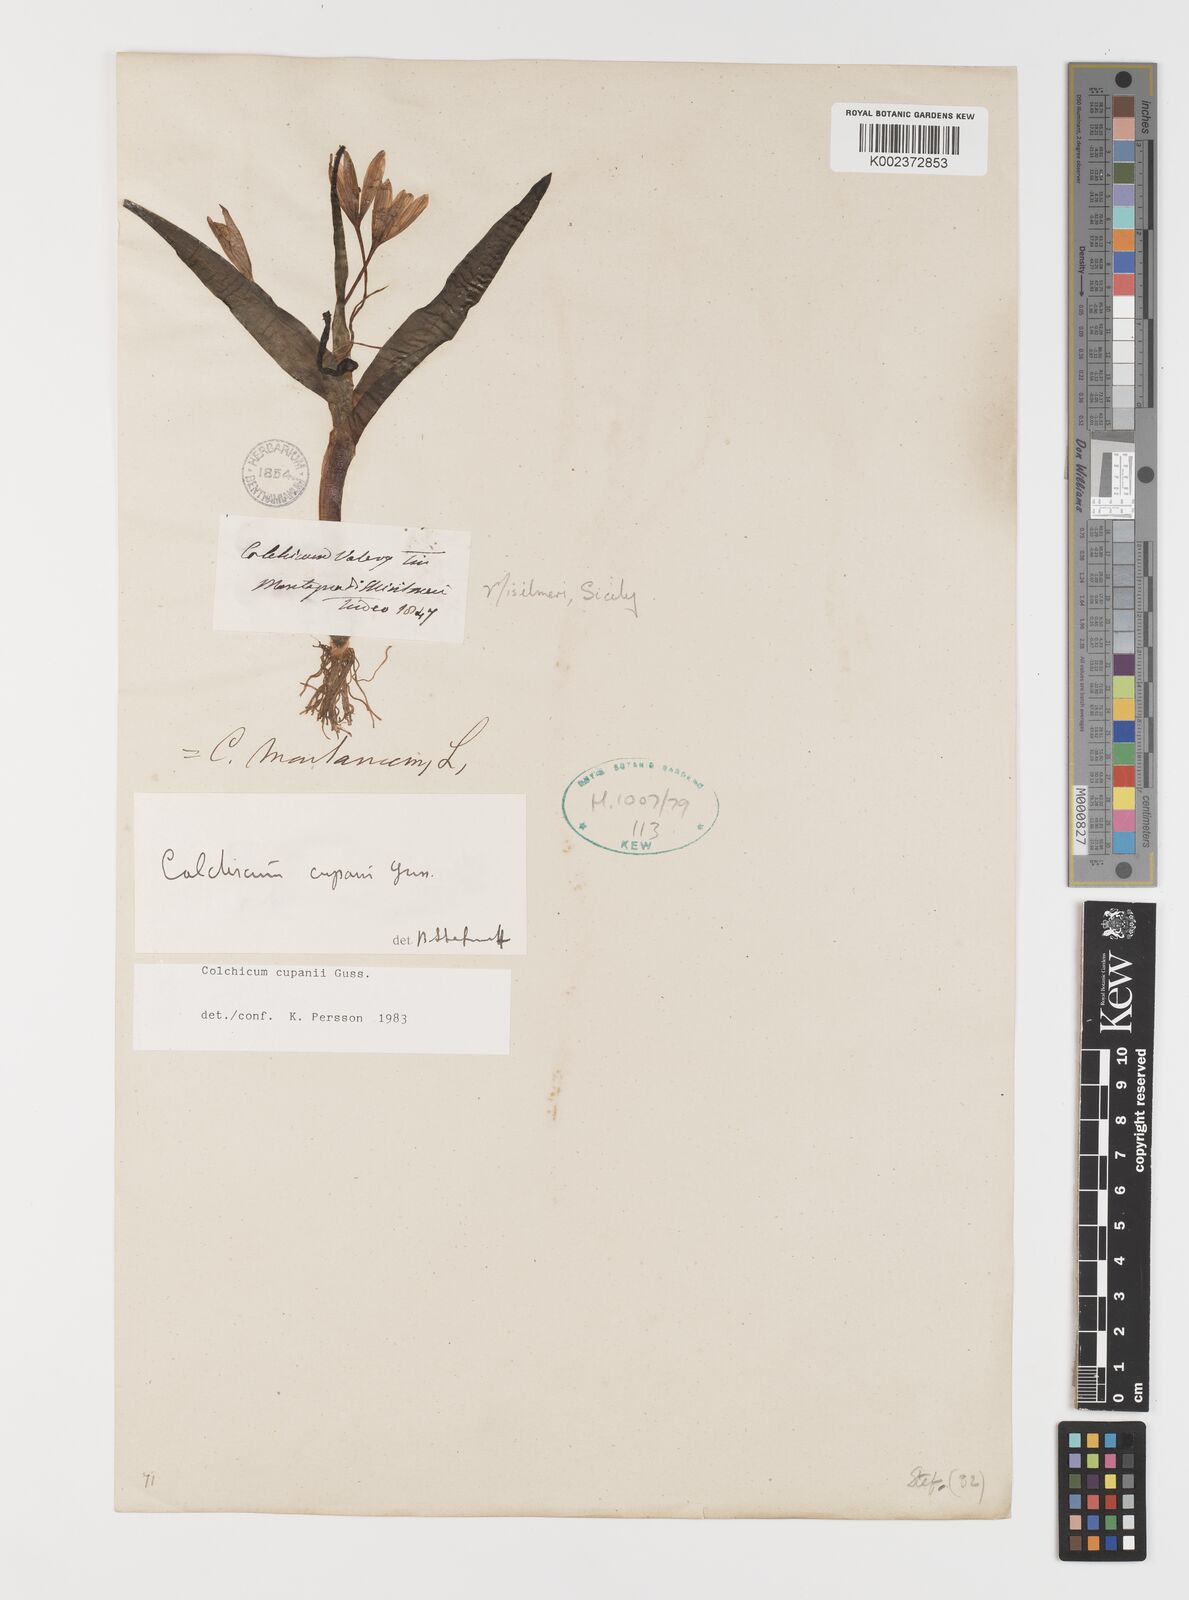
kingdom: Plantae
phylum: Tracheophyta
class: Liliopsida
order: Liliales
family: Colchicaceae
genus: Colchicum
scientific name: Colchicum cupanii
